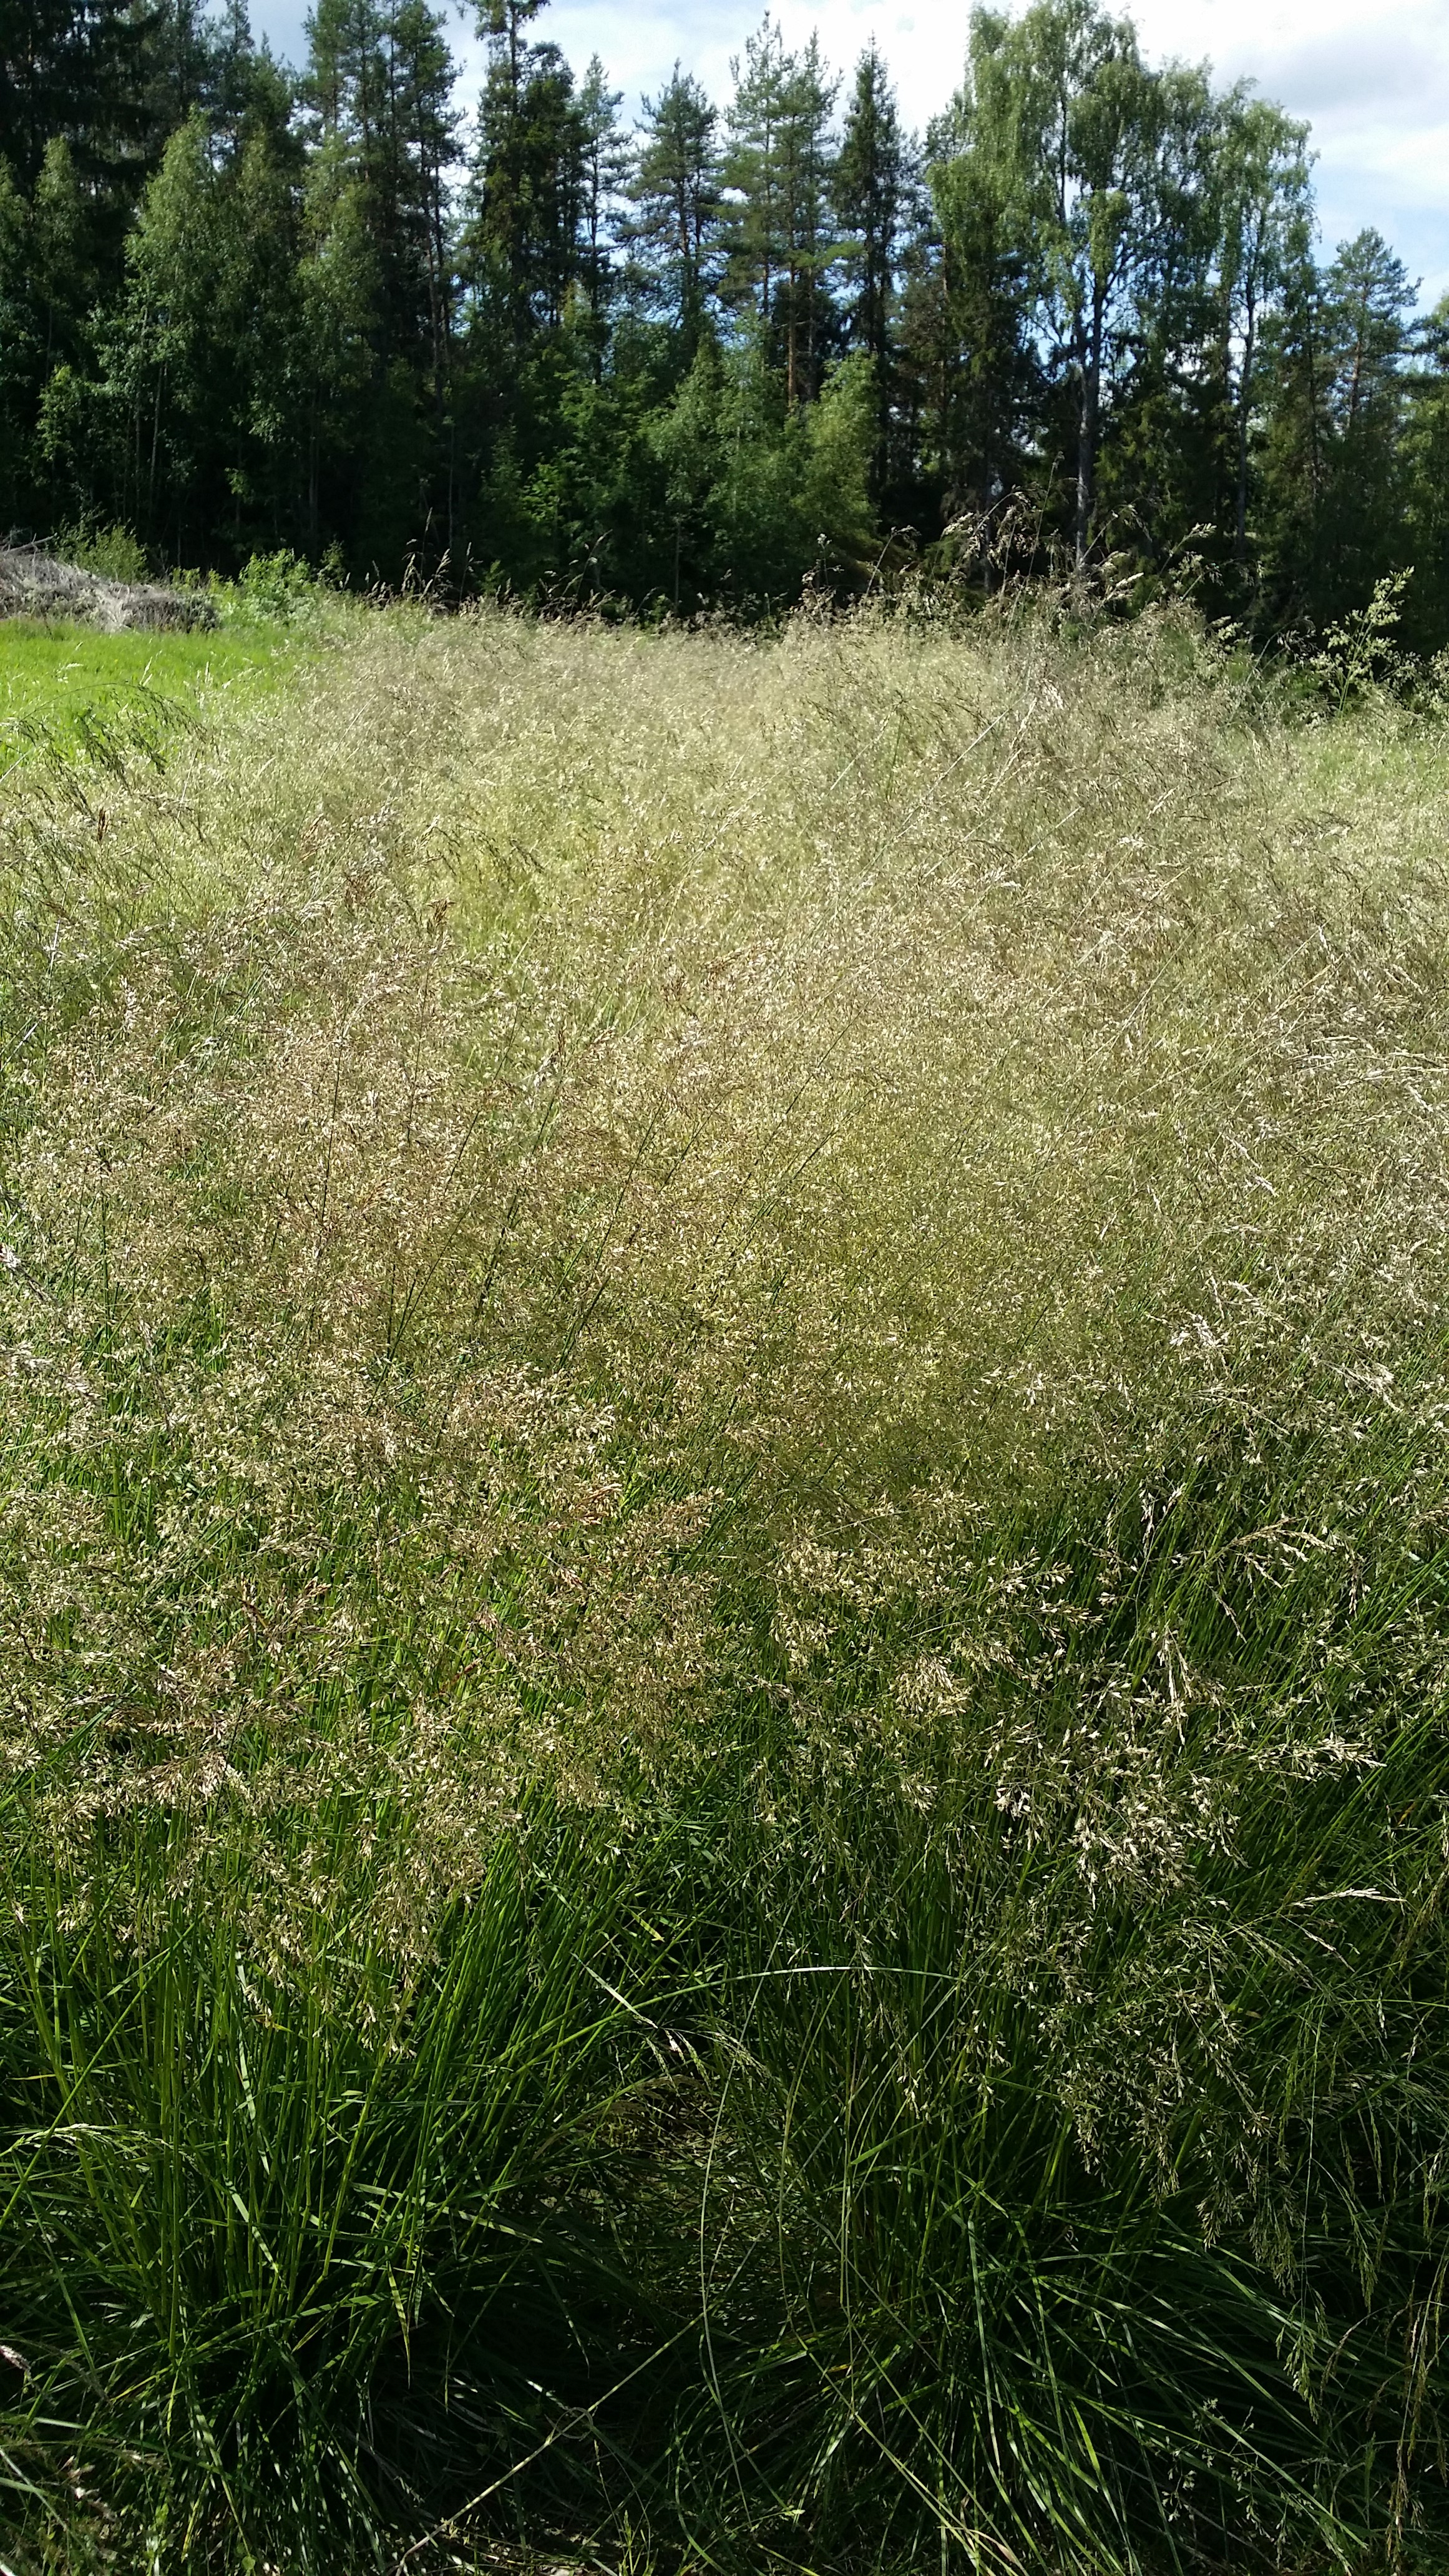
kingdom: Plantae
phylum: Tracheophyta
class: Liliopsida
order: Poales
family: Poaceae
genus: Deschampsia
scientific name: Deschampsia cespitosa
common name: Tufted hair-grass
